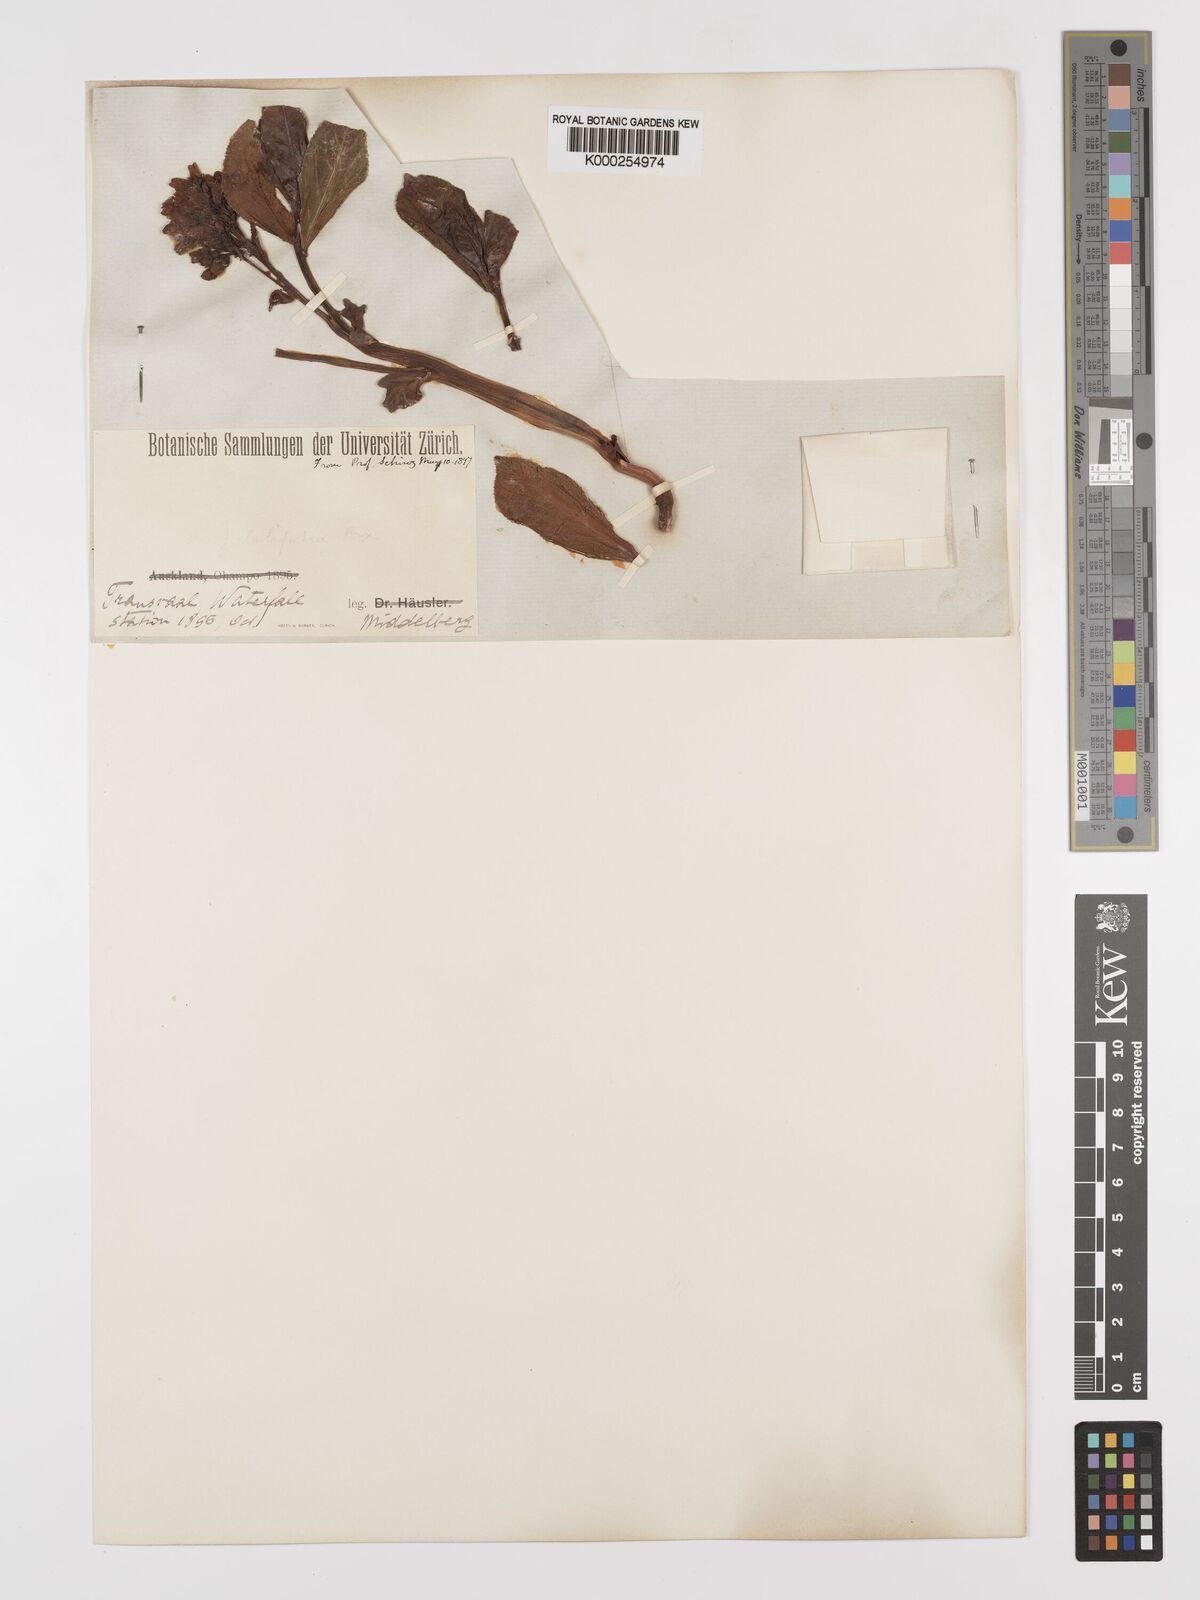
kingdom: Plantae
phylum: Tracheophyta
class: Magnoliopsida
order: Malpighiales
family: Euphorbiaceae
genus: Jatropha
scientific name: Jatropha latifolia
